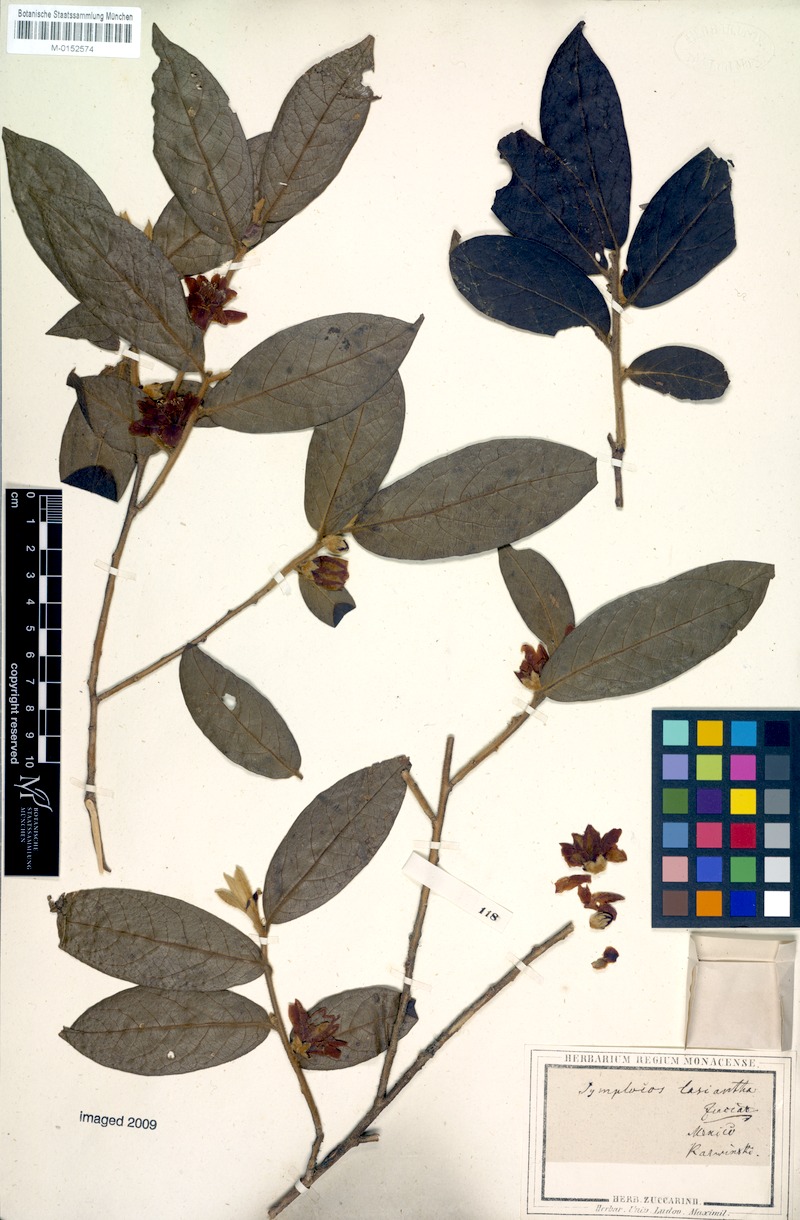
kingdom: Plantae
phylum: Tracheophyta
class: Magnoliopsida
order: Ericales
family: Symplocaceae
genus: Symplocos
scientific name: Symplocos coccinea
